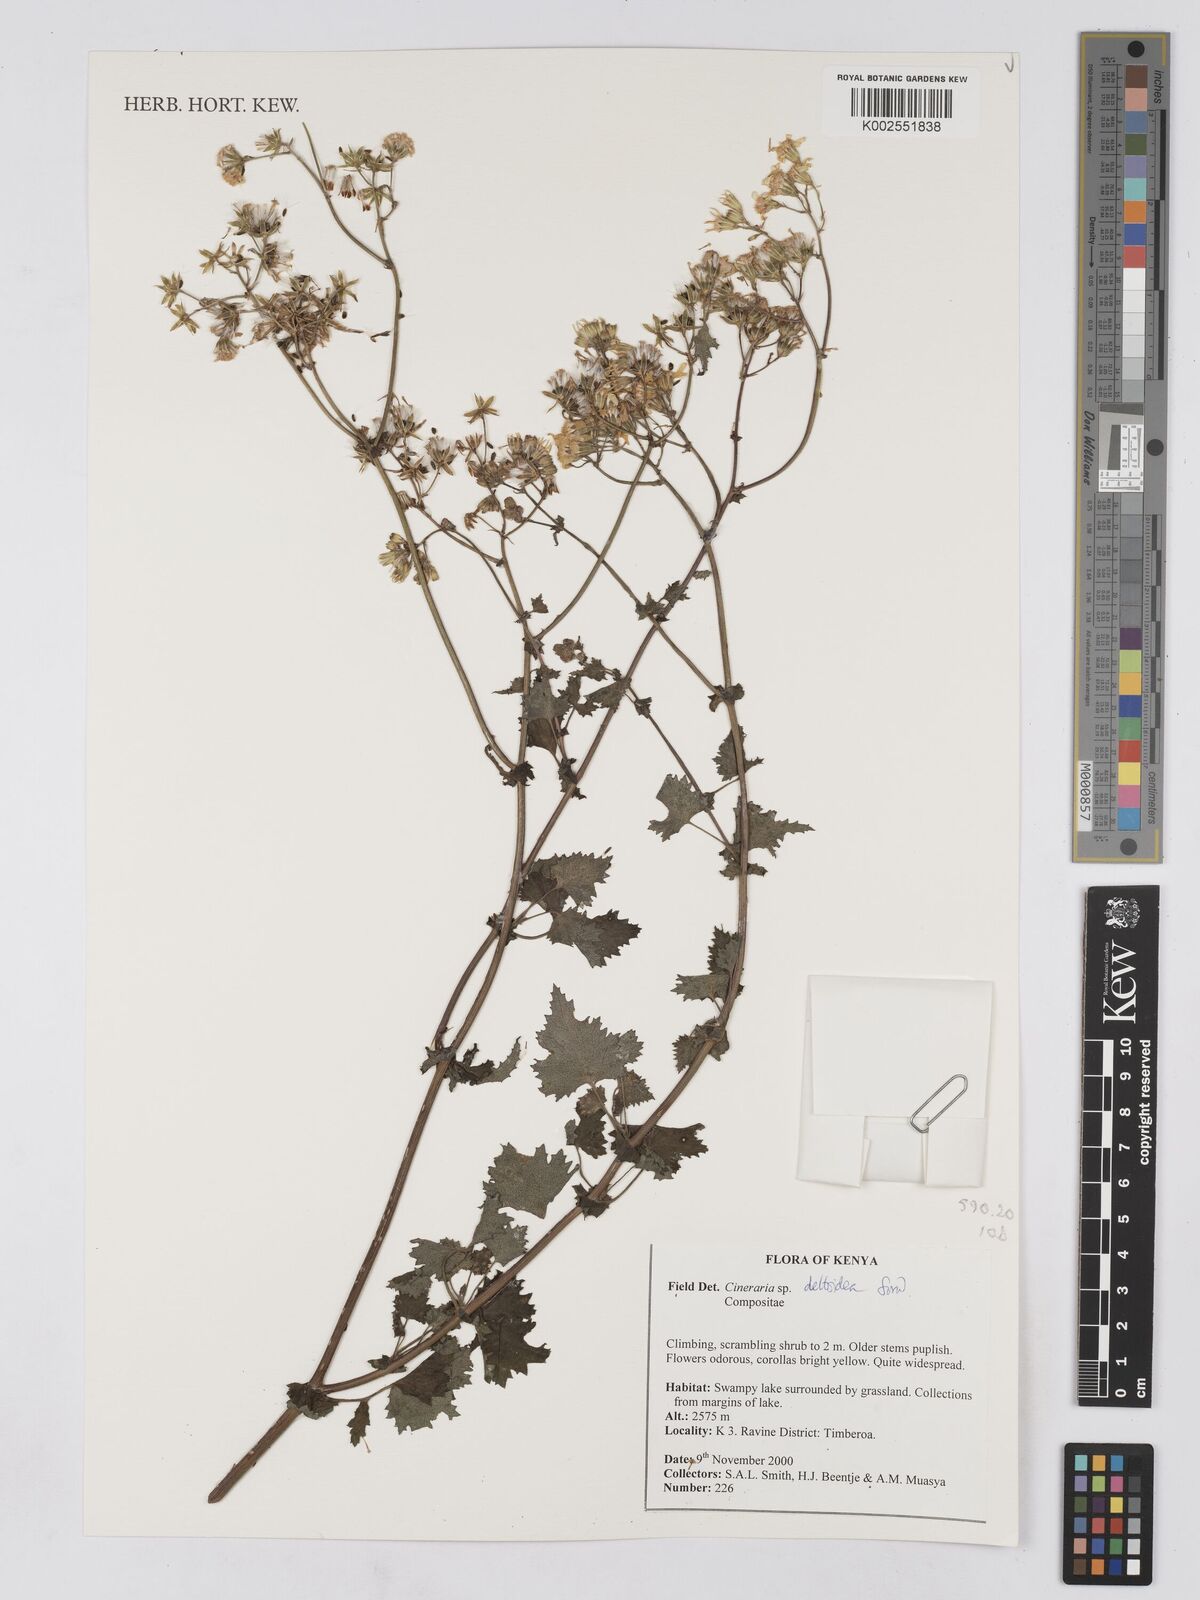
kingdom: Plantae
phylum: Tracheophyta
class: Magnoliopsida
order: Asterales
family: Asteraceae
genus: Cineraria
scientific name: Cineraria deltoidea
